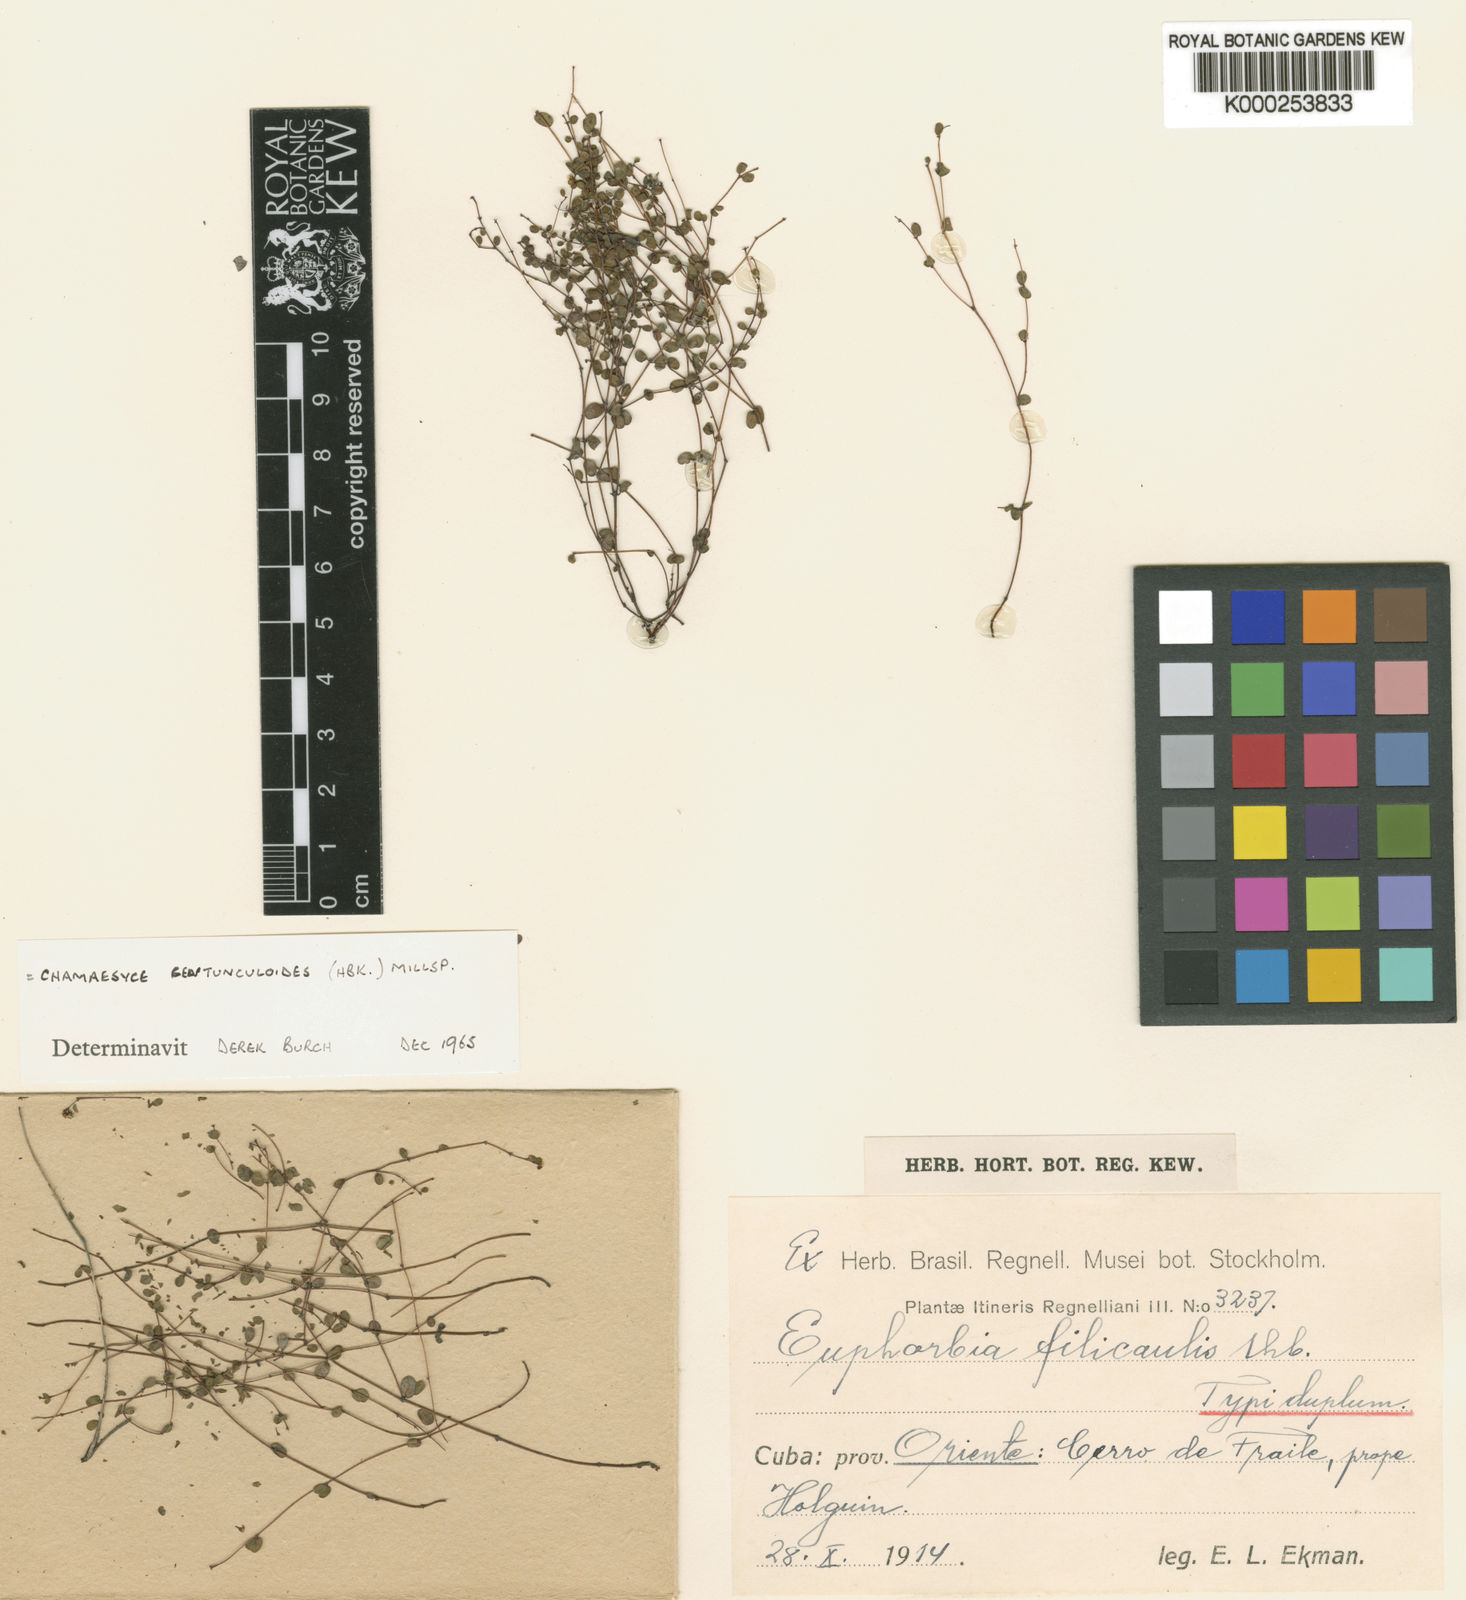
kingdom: Plantae
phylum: Tracheophyta
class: Magnoliopsida
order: Malpighiales
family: Euphorbiaceae
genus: Euphorbia
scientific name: Euphorbia filicaulis
